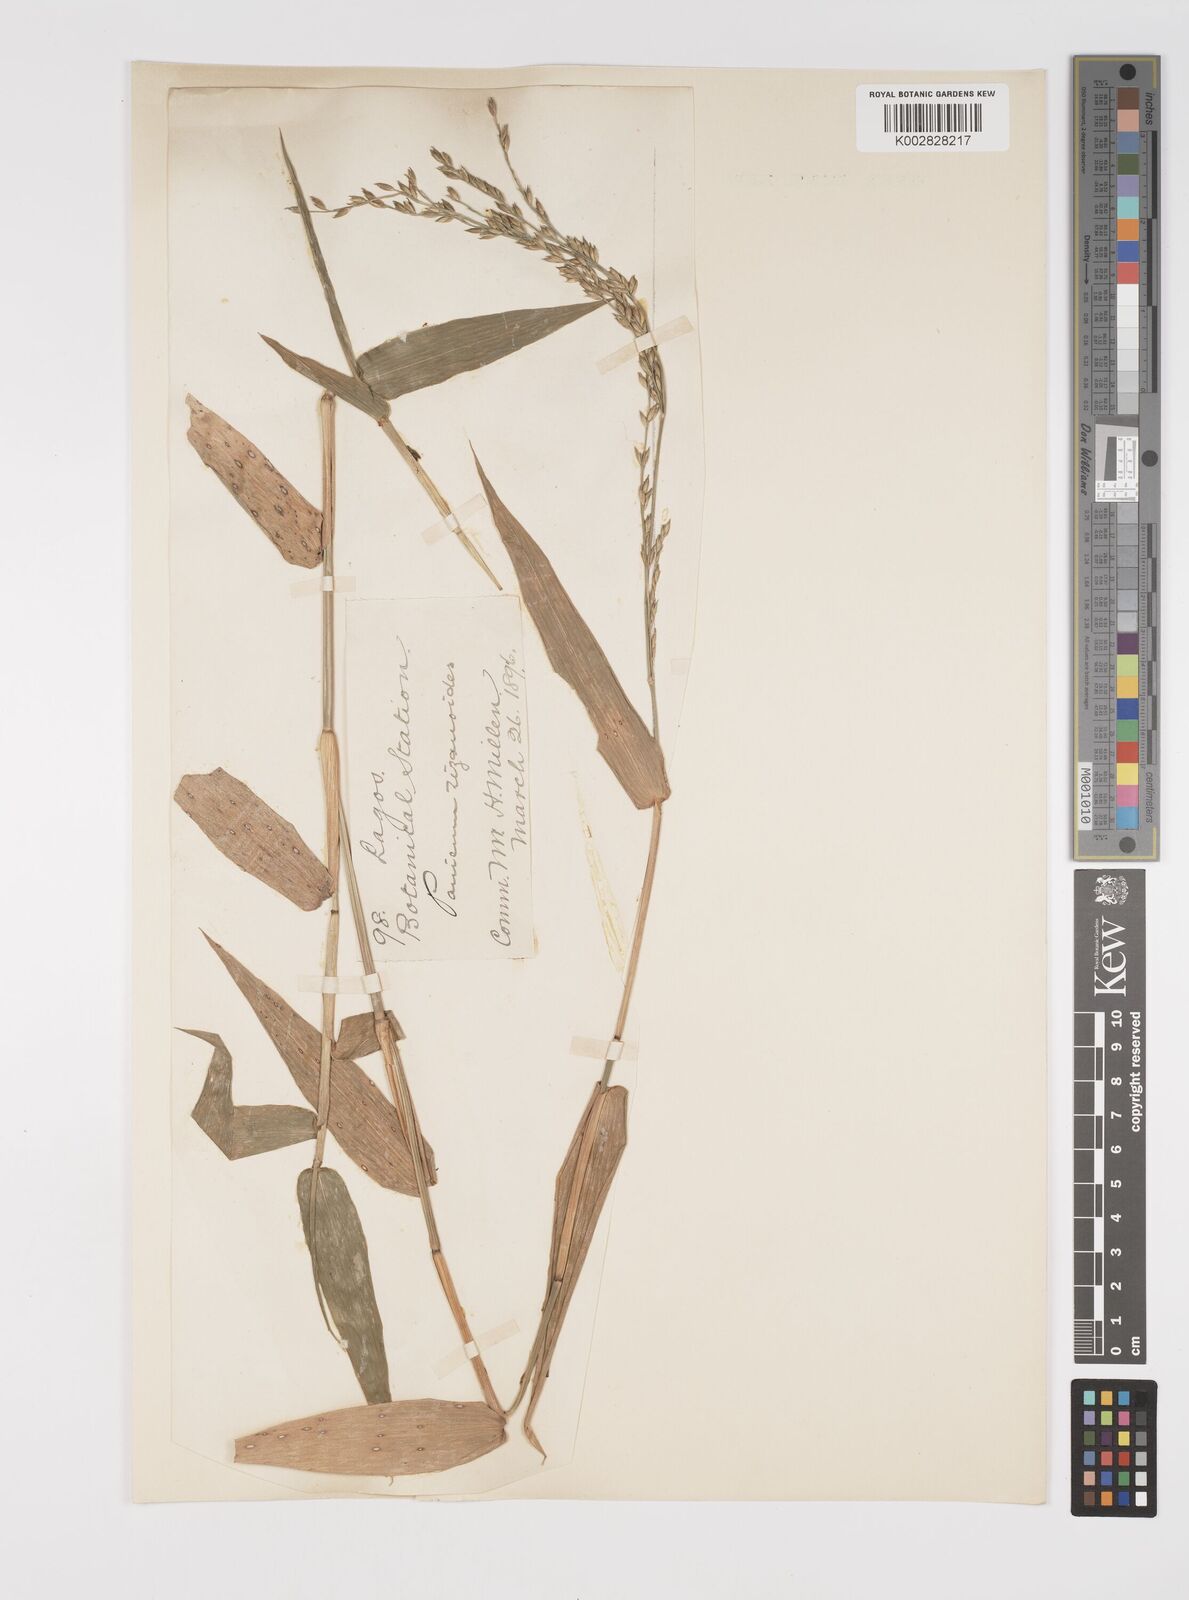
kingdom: Plantae
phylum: Tracheophyta
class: Liliopsida
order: Poales
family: Poaceae
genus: Acroceras
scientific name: Acroceras zizanioides
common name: Oat grass
